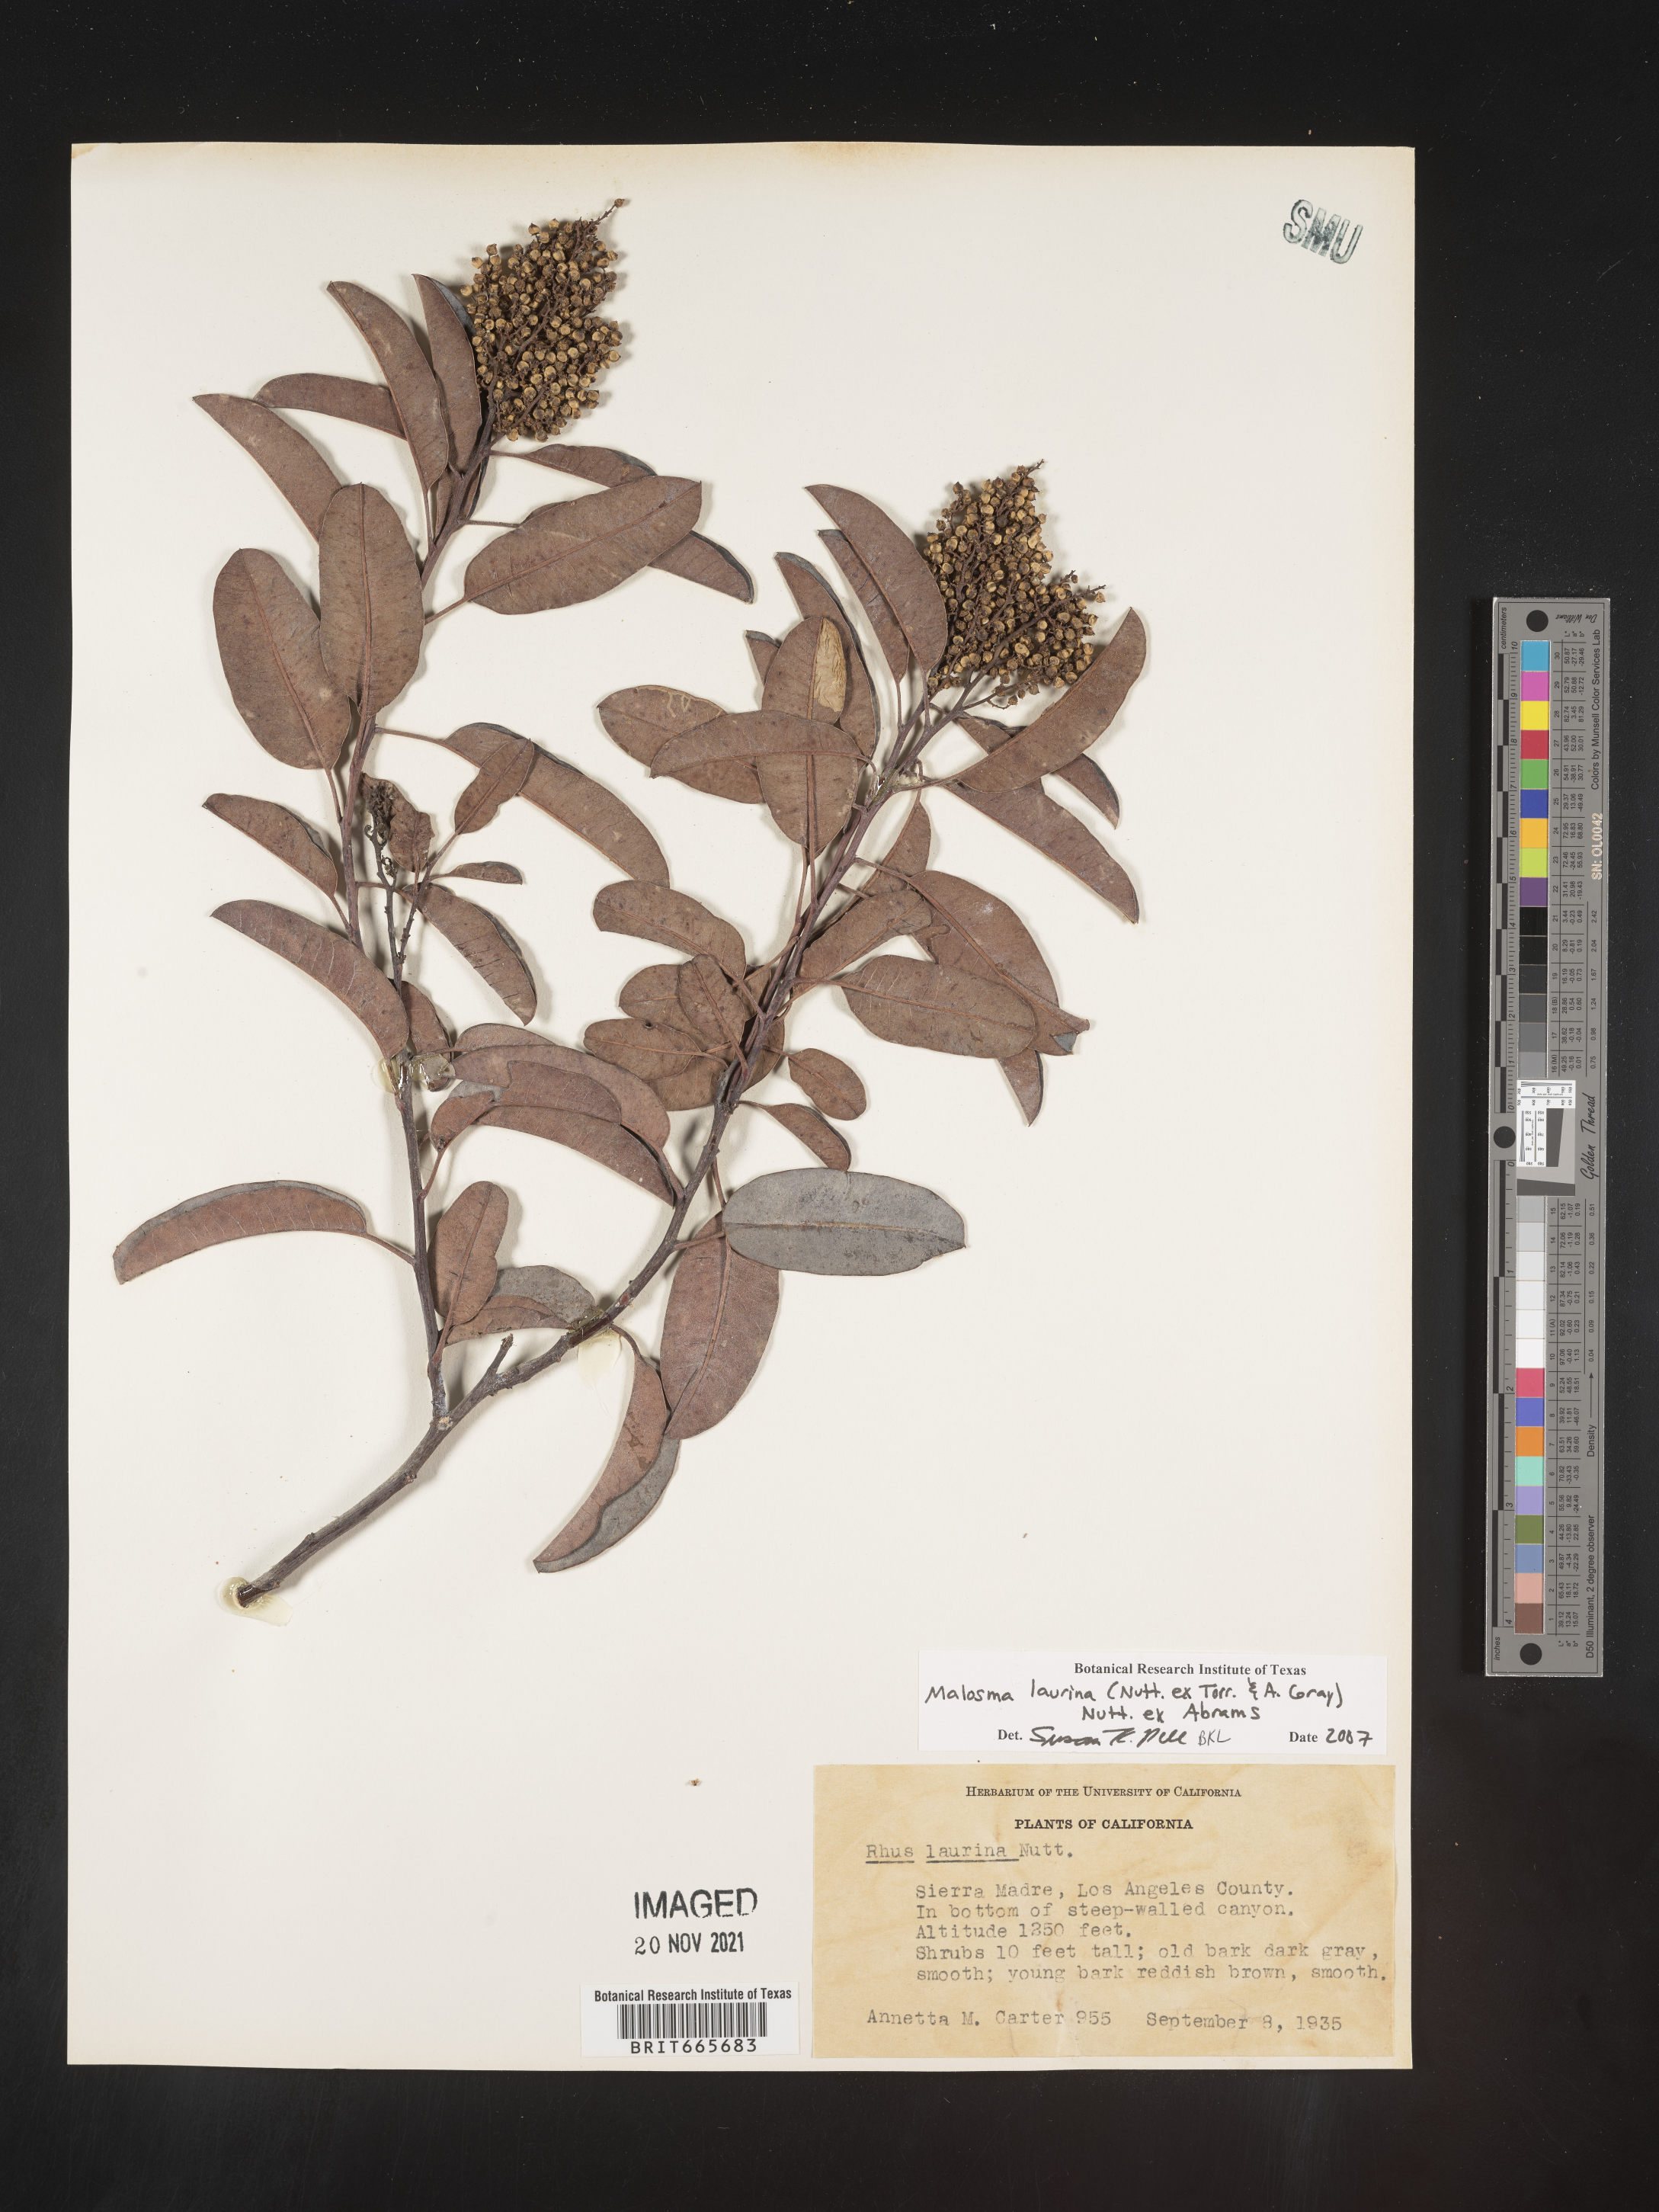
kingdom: Plantae
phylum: Tracheophyta
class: Magnoliopsida
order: Sapindales
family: Anacardiaceae
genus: Malosma
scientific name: Malosma
